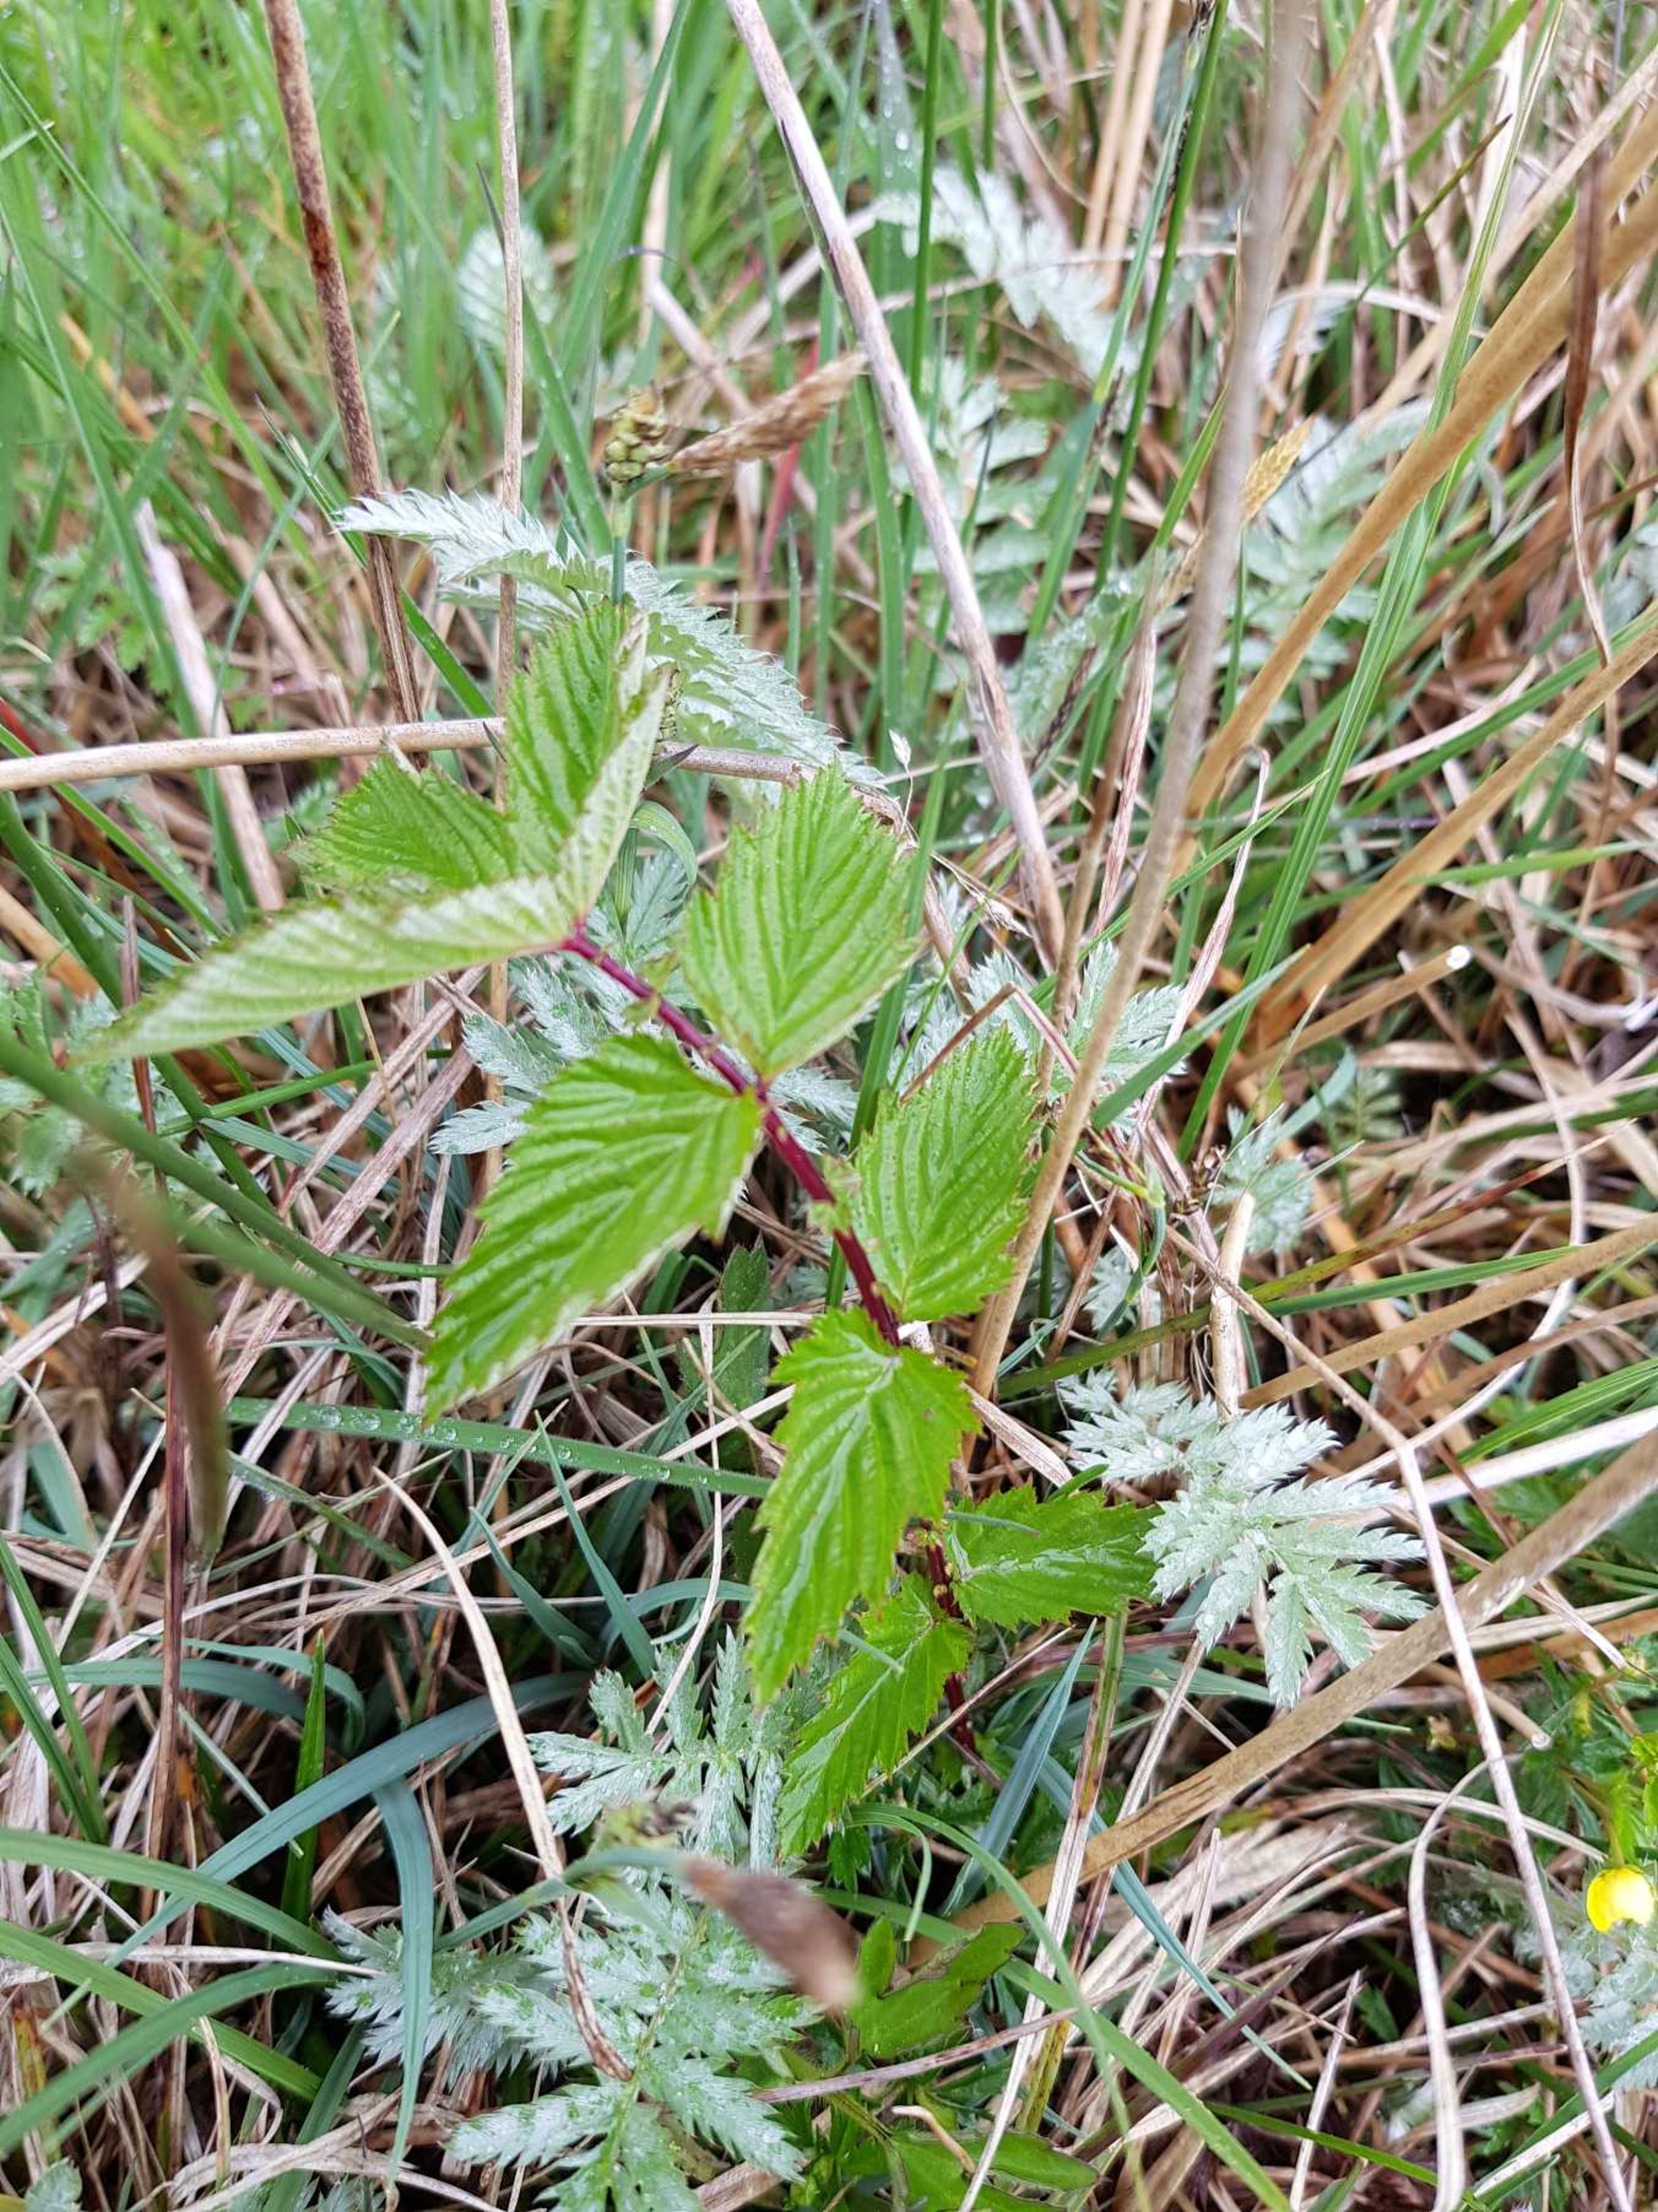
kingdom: Plantae
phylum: Tracheophyta
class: Magnoliopsida
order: Rosales
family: Rosaceae
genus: Filipendula
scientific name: Filipendula ulmaria
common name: Almindelig mjødurt
